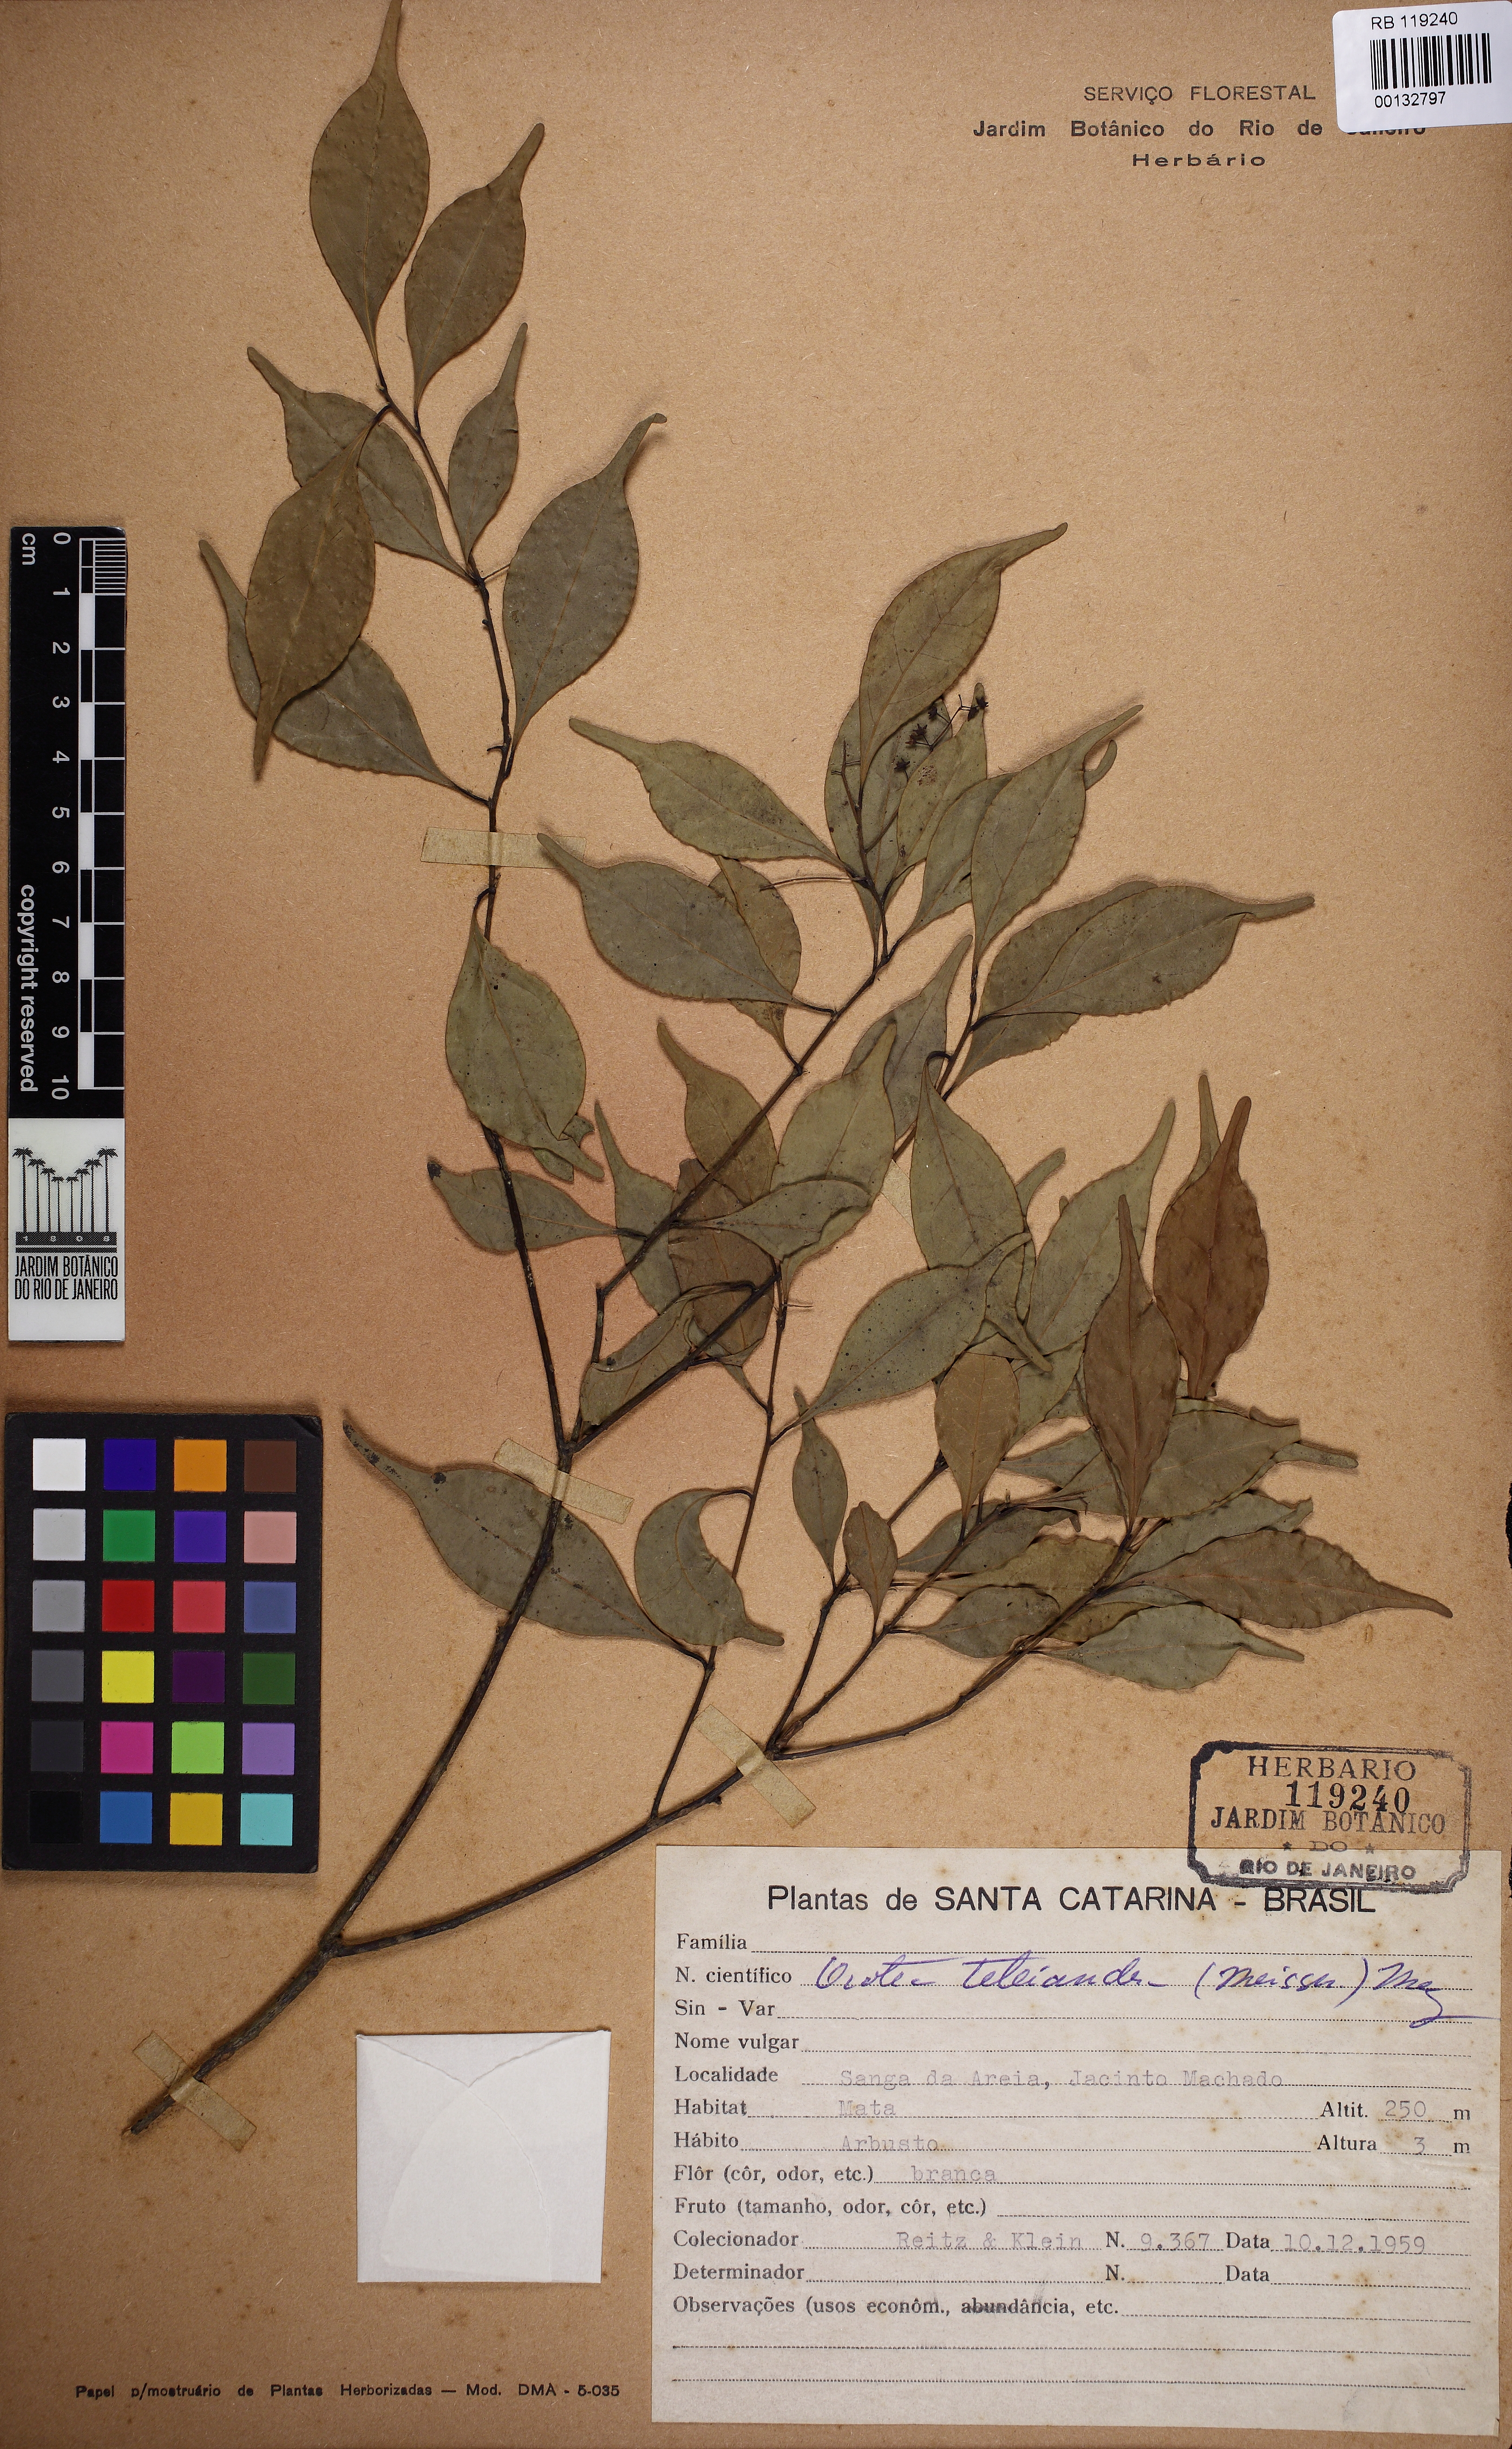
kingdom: Plantae
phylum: Tracheophyta
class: Magnoliopsida
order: Laurales
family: Lauraceae
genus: Ocotea
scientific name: Ocotea teleiandra
